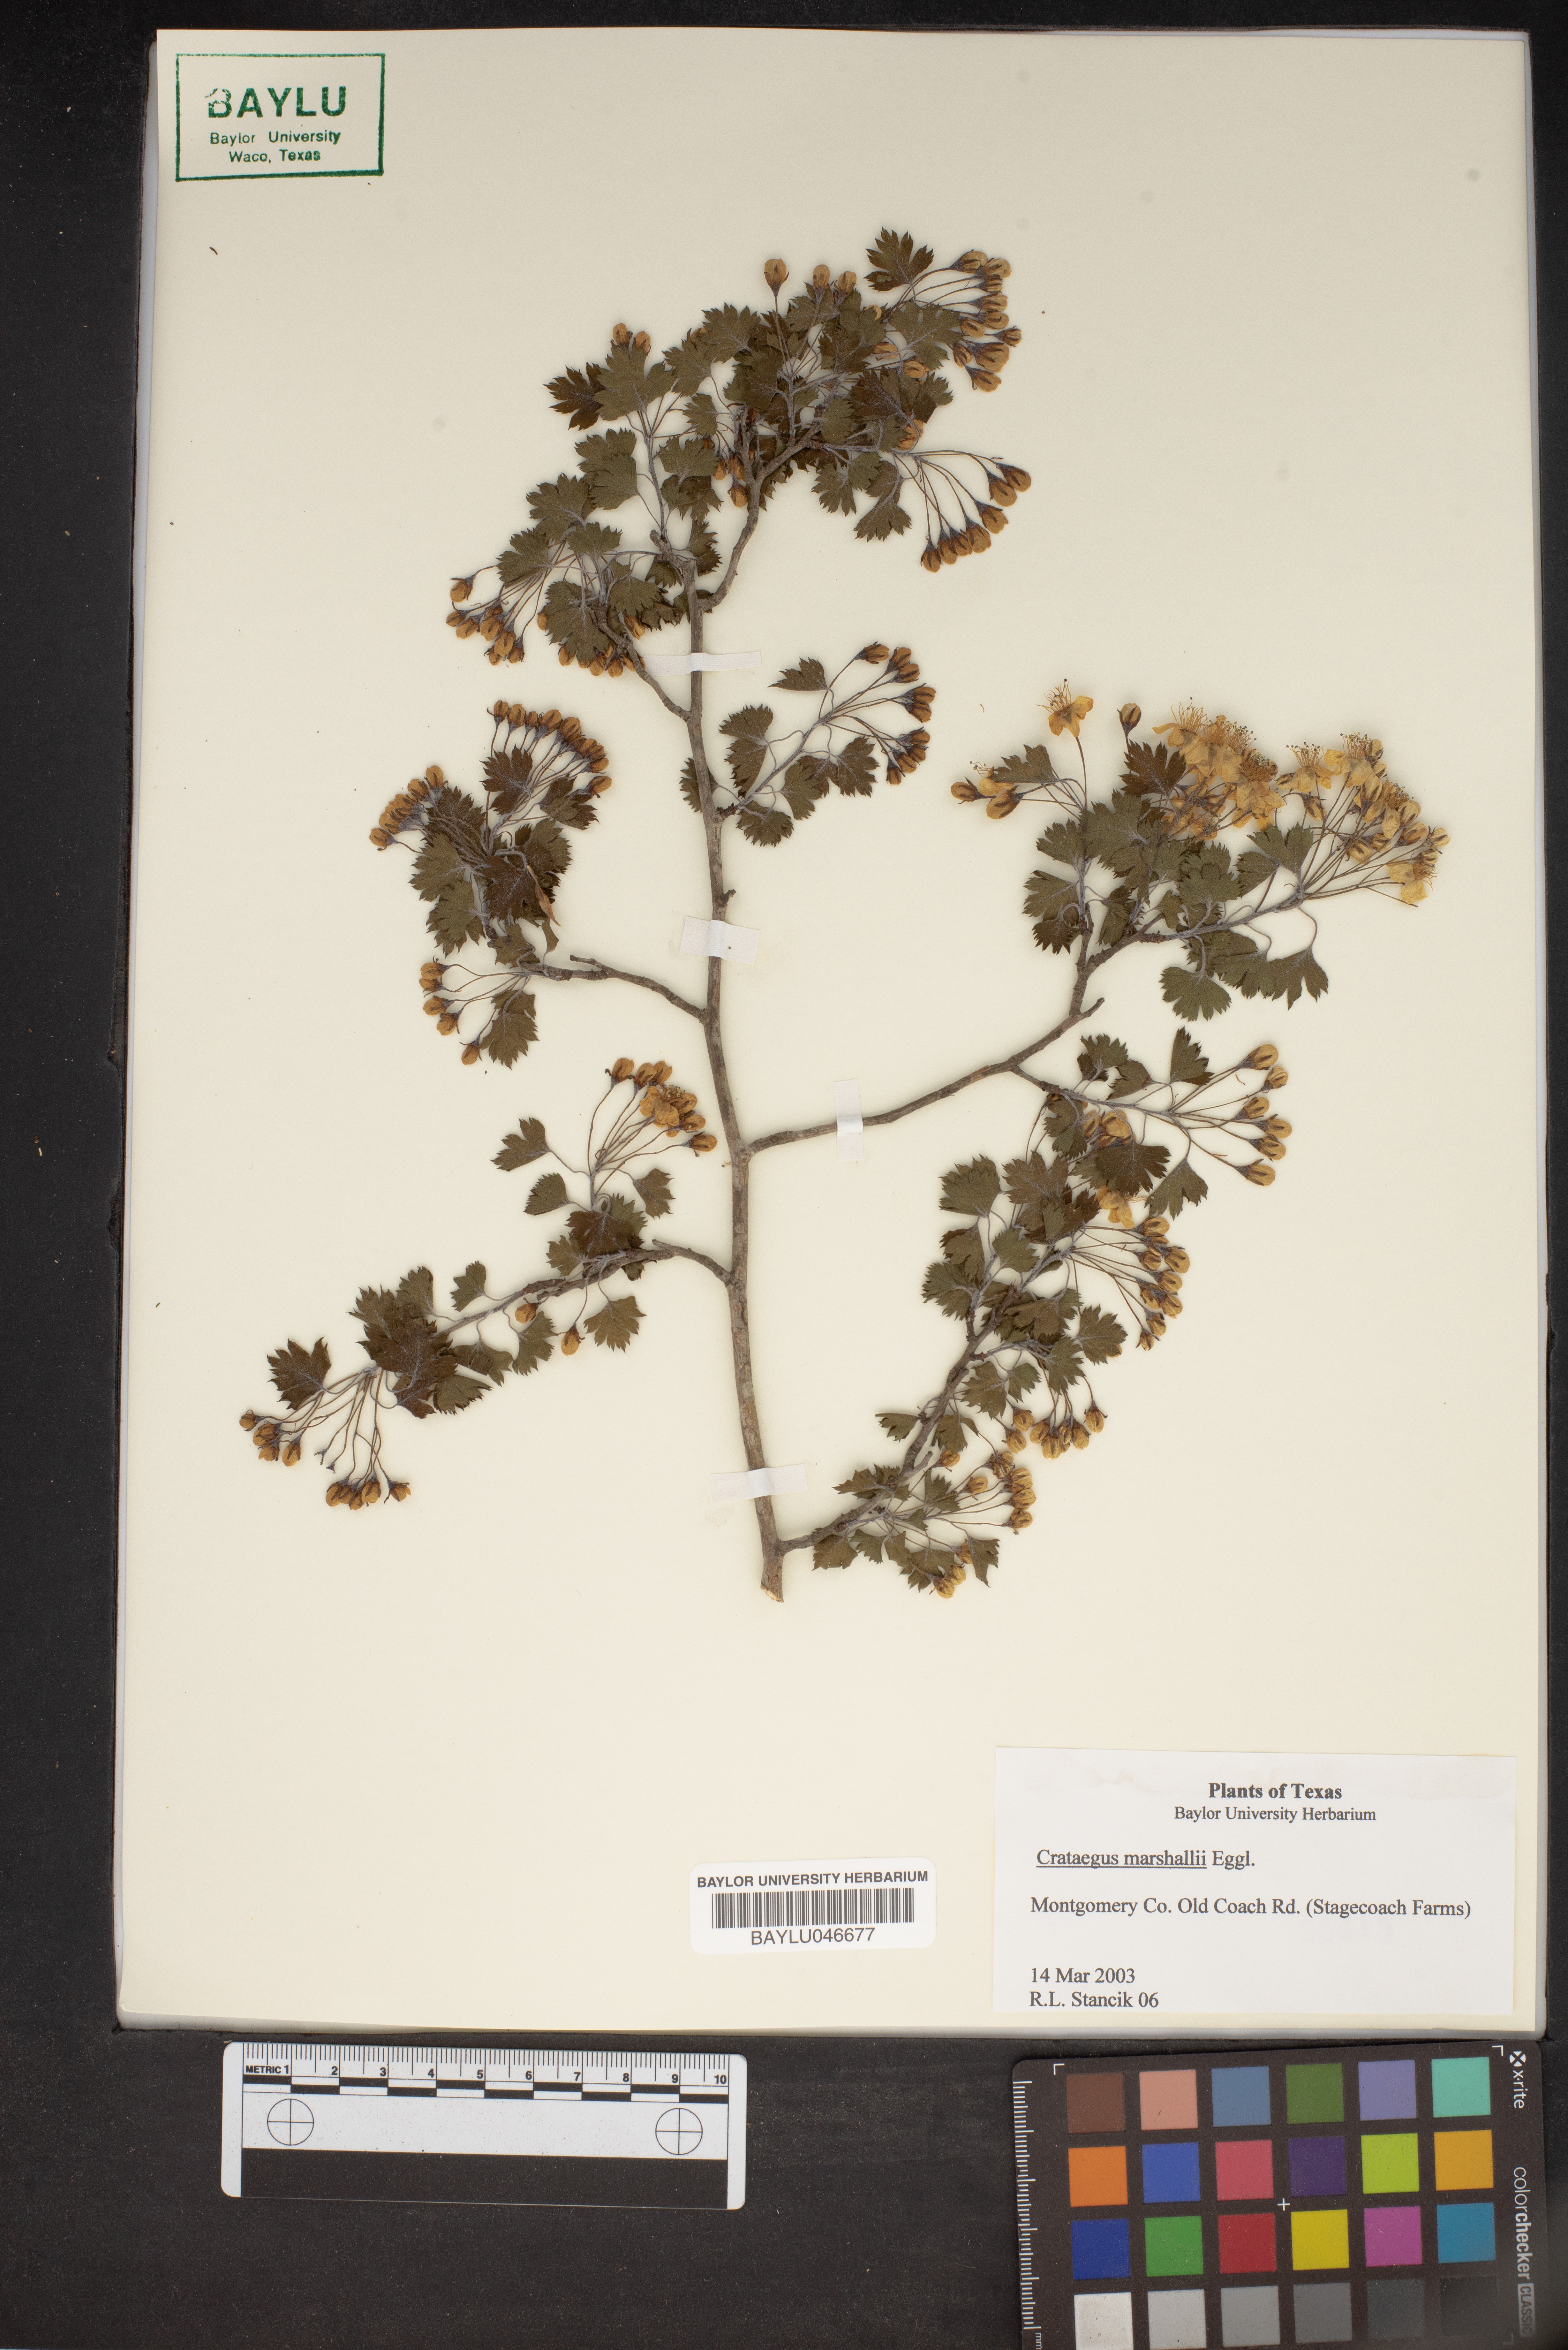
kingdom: Plantae
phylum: Tracheophyta
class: Magnoliopsida
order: Rosales
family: Rosaceae
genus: Crataegus
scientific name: Crataegus marshallii
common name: Parsley-hawthorn
